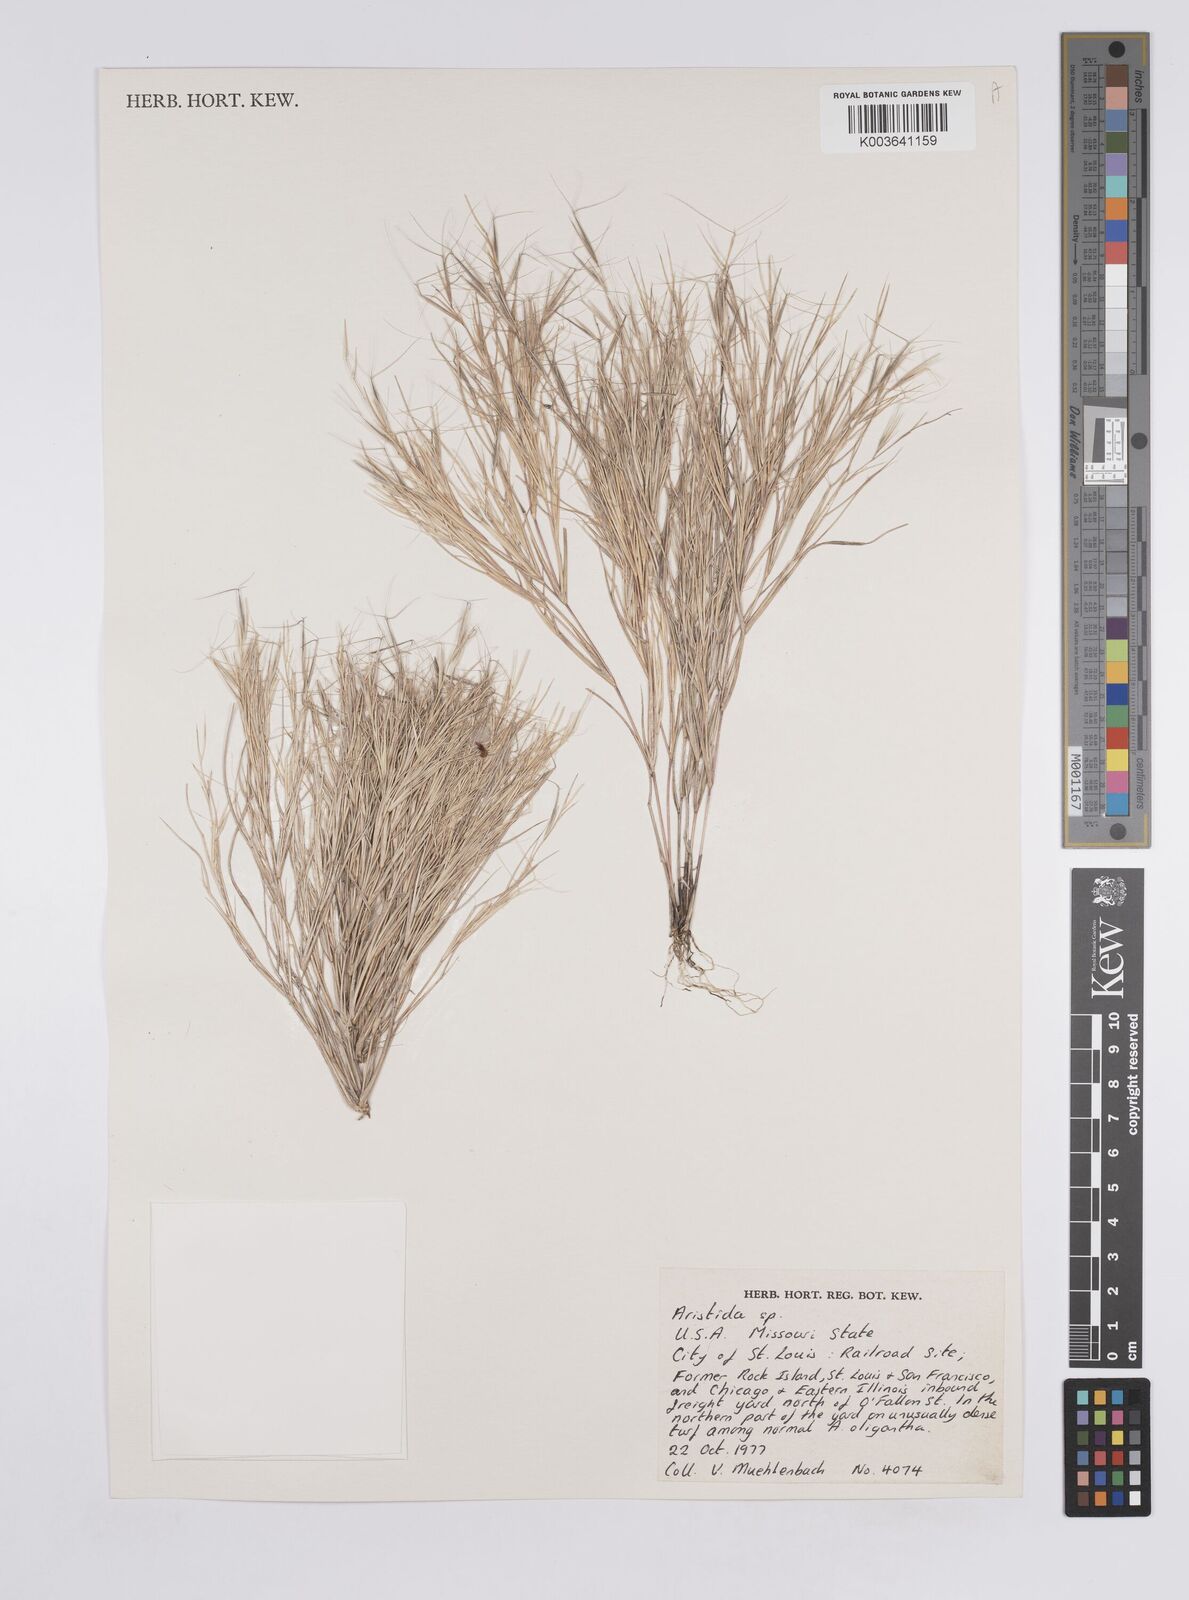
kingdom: Plantae
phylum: Tracheophyta
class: Liliopsida
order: Poales
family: Poaceae
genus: Aristida
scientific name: Aristida
